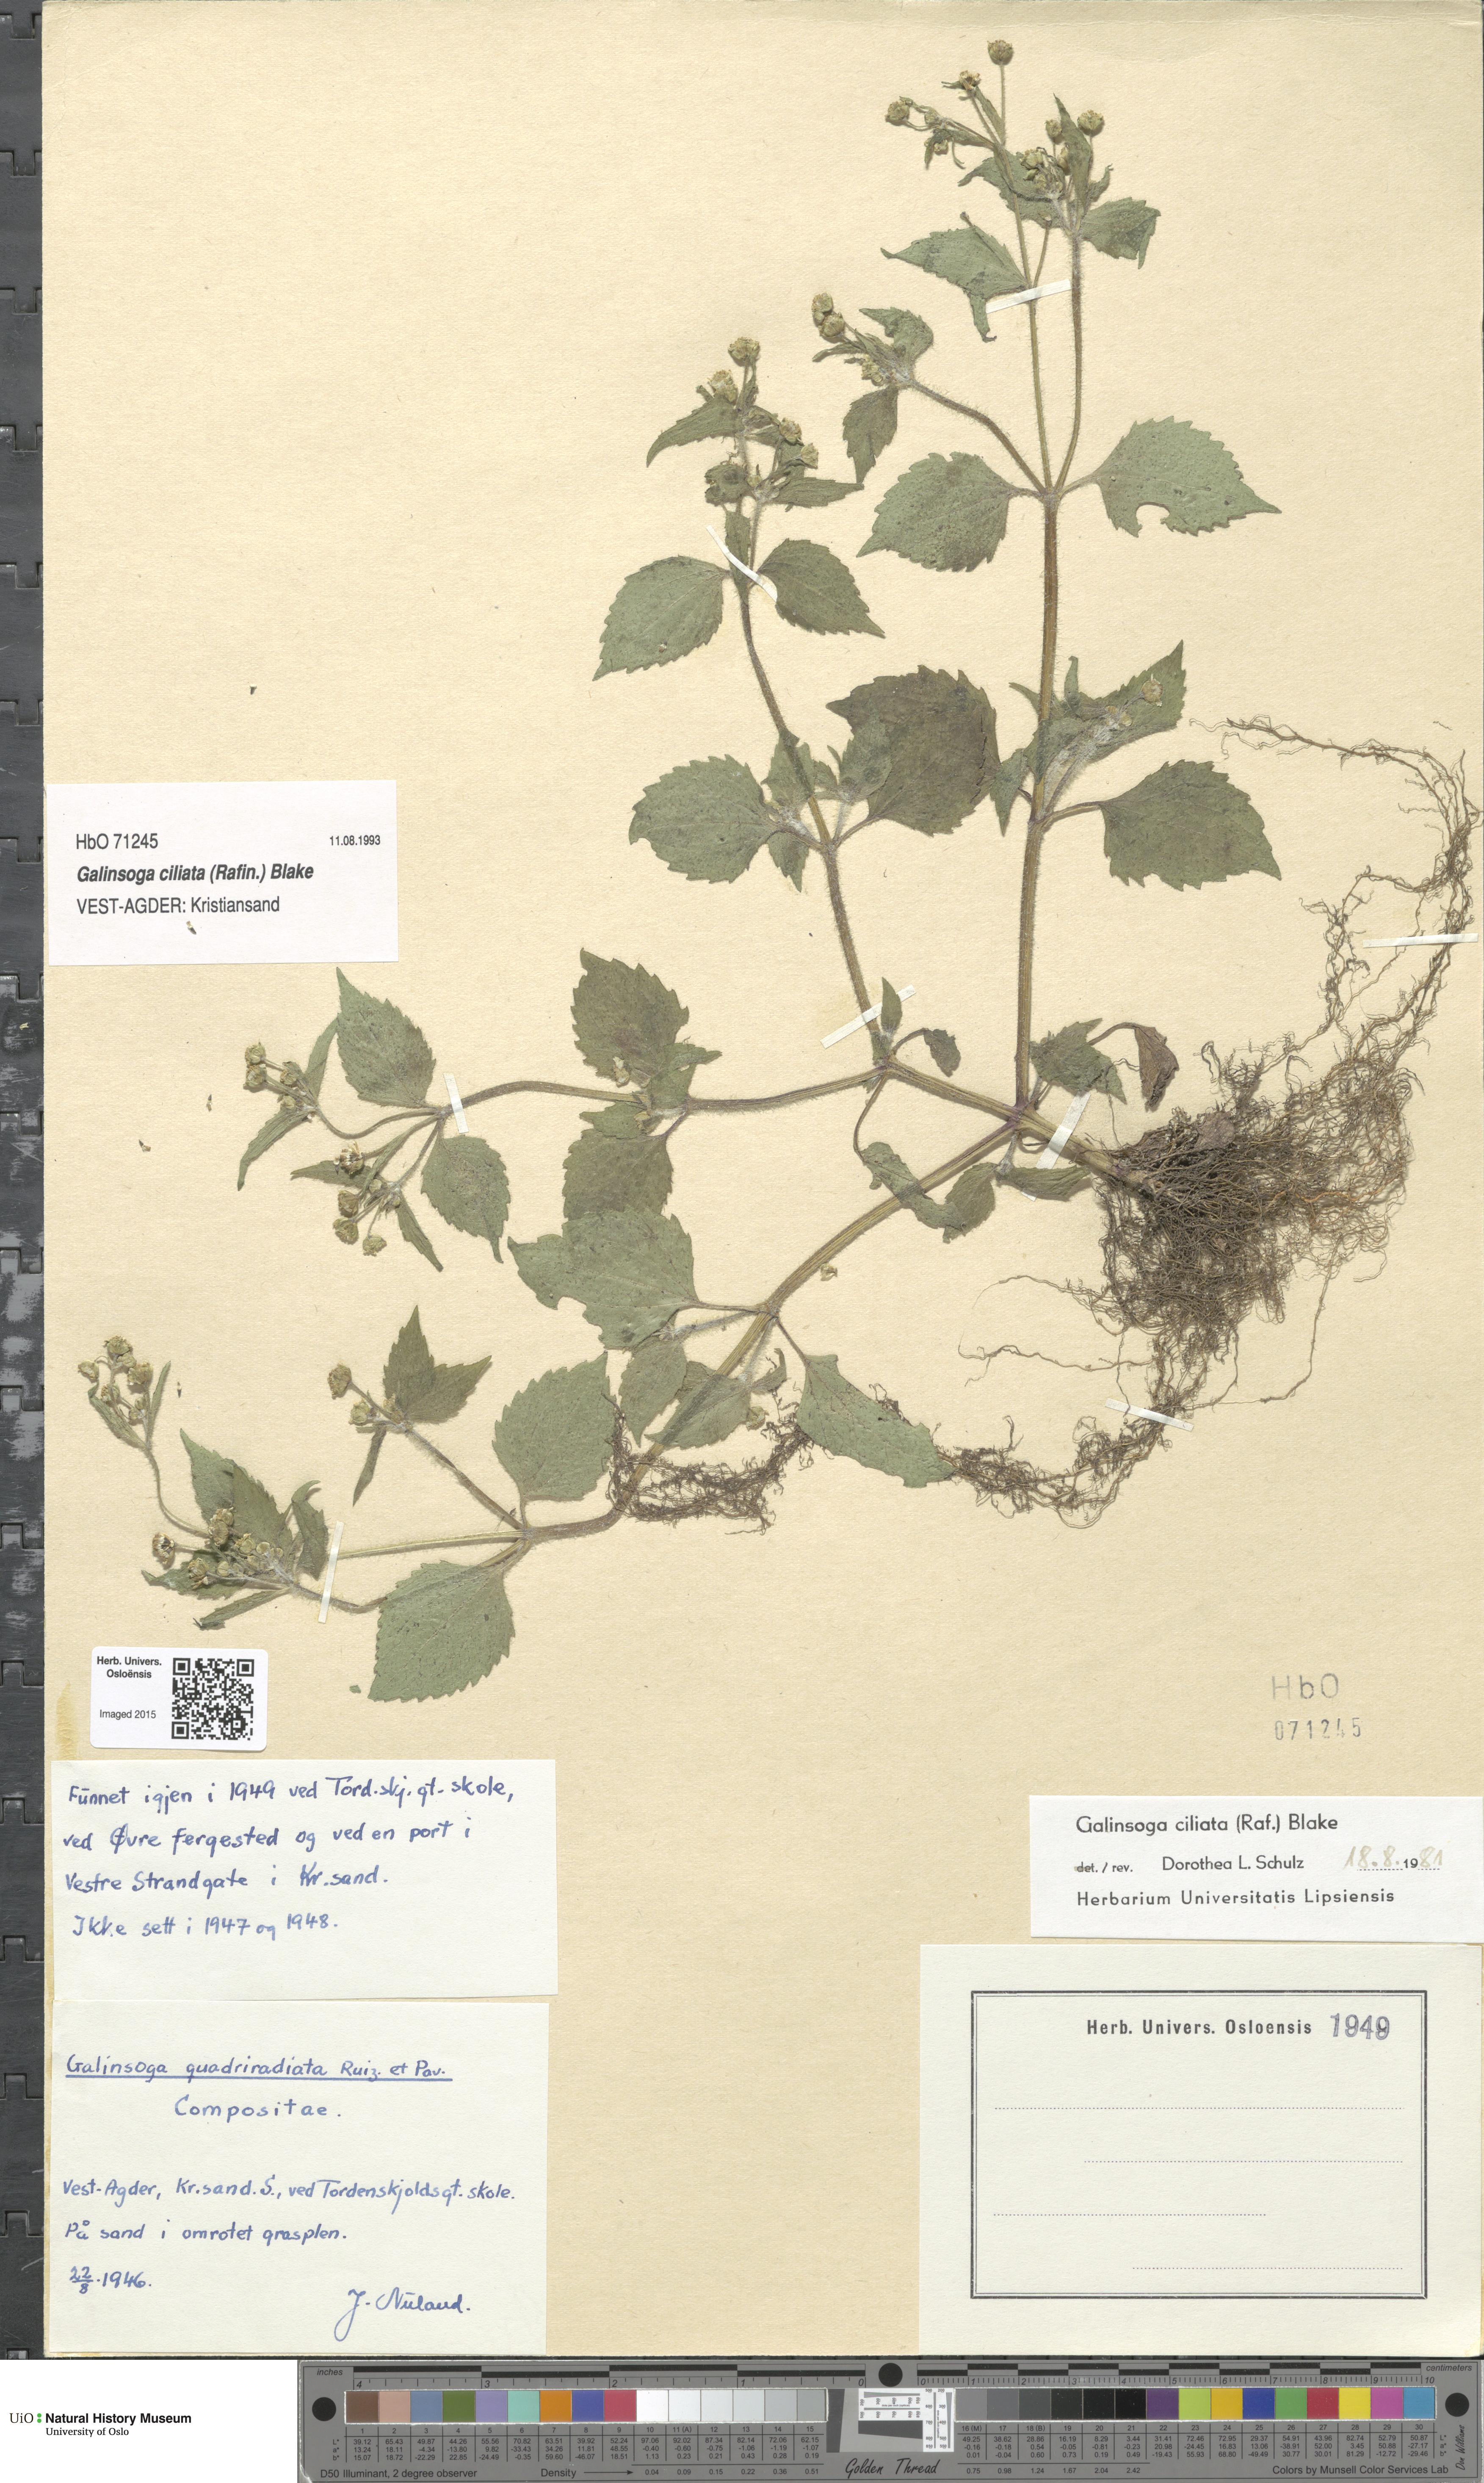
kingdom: Plantae
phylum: Tracheophyta
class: Magnoliopsida
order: Asterales
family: Asteraceae
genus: Galinsoga
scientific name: Galinsoga quadriradiata
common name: Shaggy soldier
